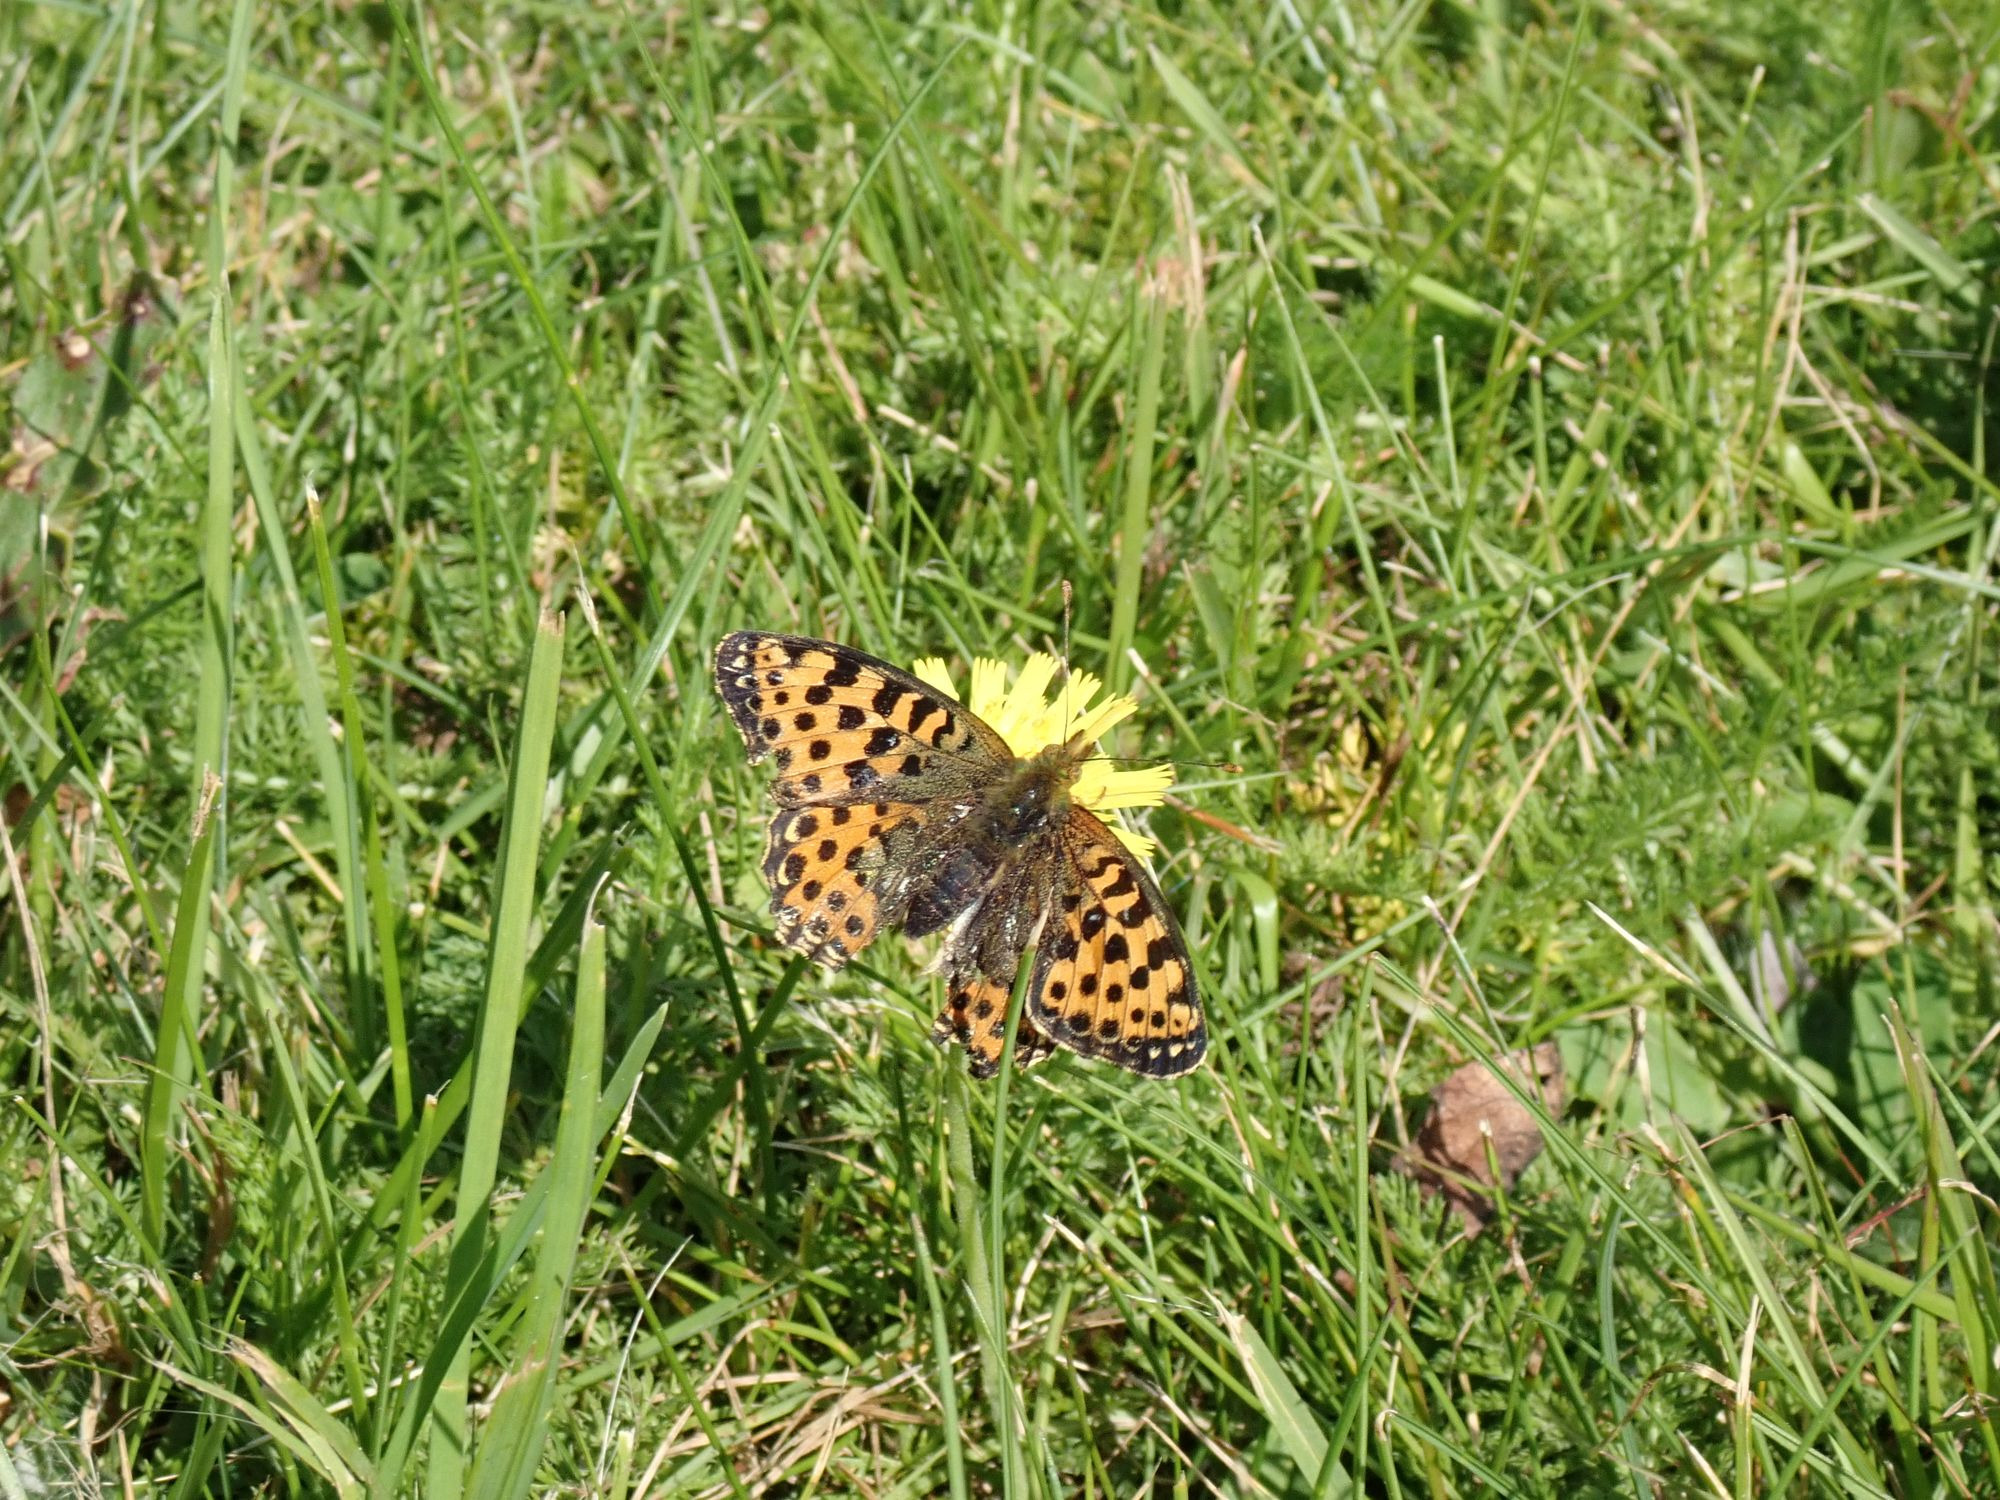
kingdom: Animalia
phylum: Arthropoda
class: Insecta
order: Lepidoptera
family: Nymphalidae
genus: Issoria
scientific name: Issoria lathonia
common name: Storplettet perlemorsommerfugl
